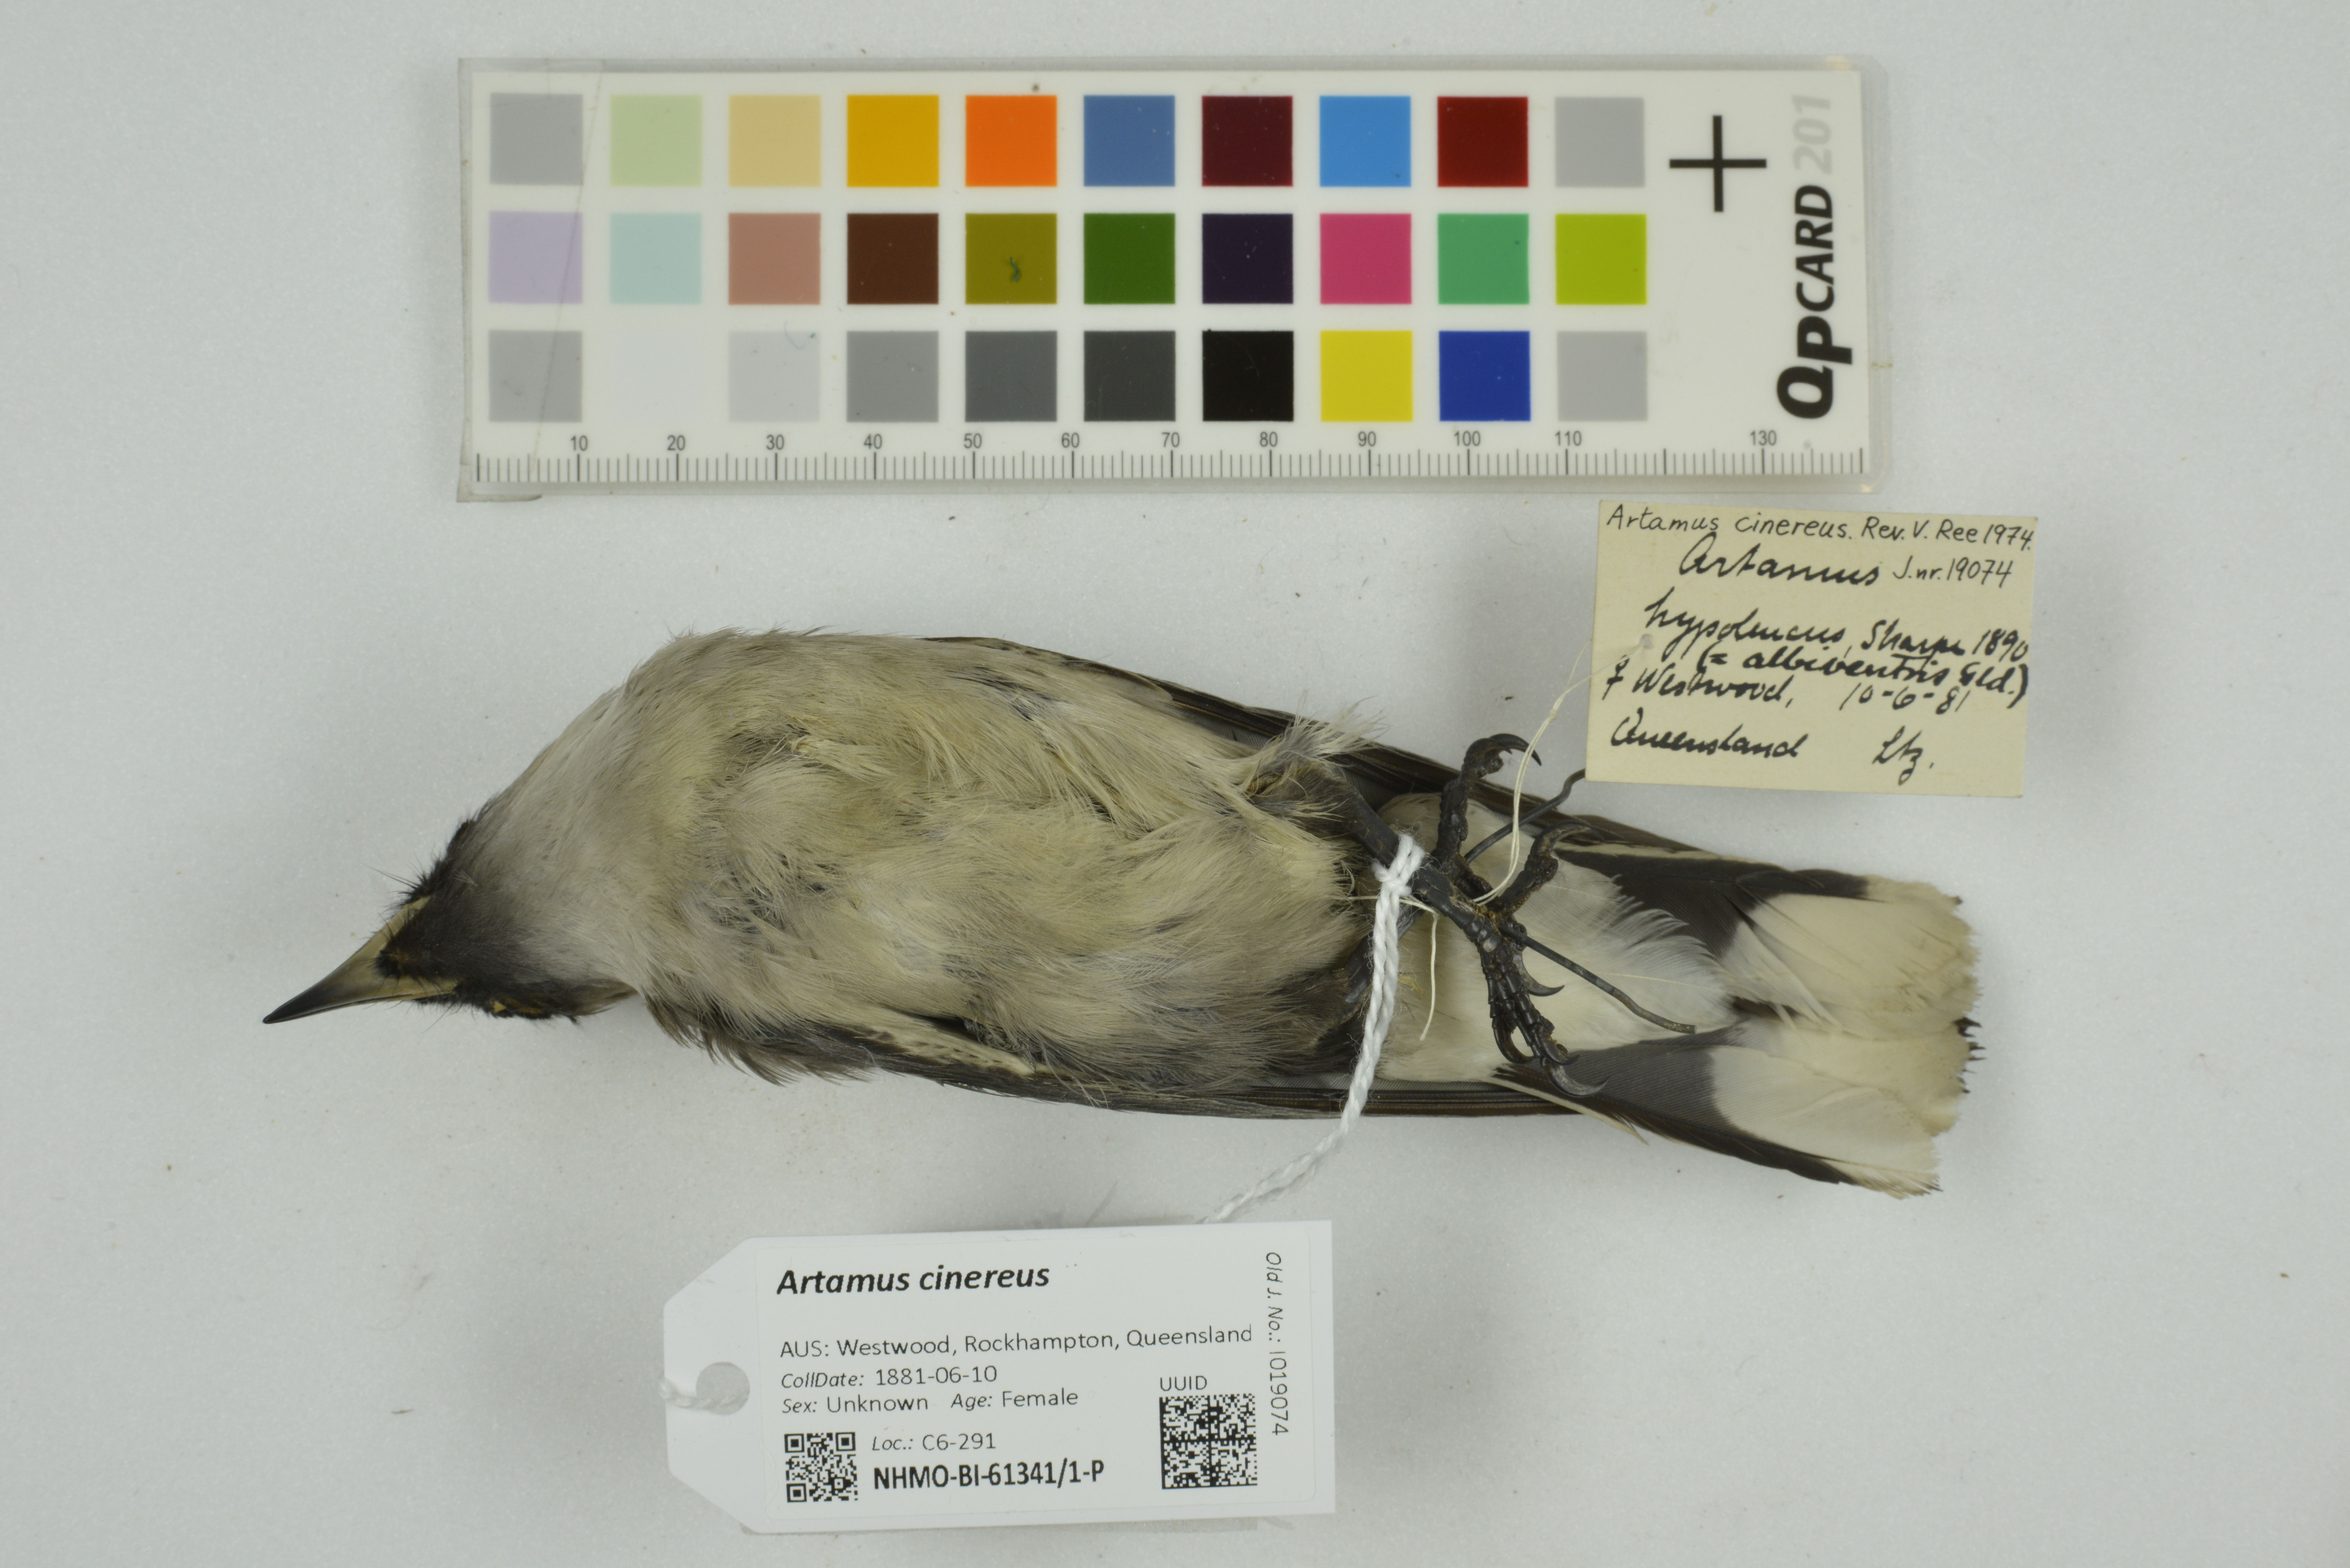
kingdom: Animalia
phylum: Chordata
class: Aves
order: Passeriformes
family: Artamidae
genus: Artamus
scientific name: Artamus cinereus
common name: Black-faced woodswallow
